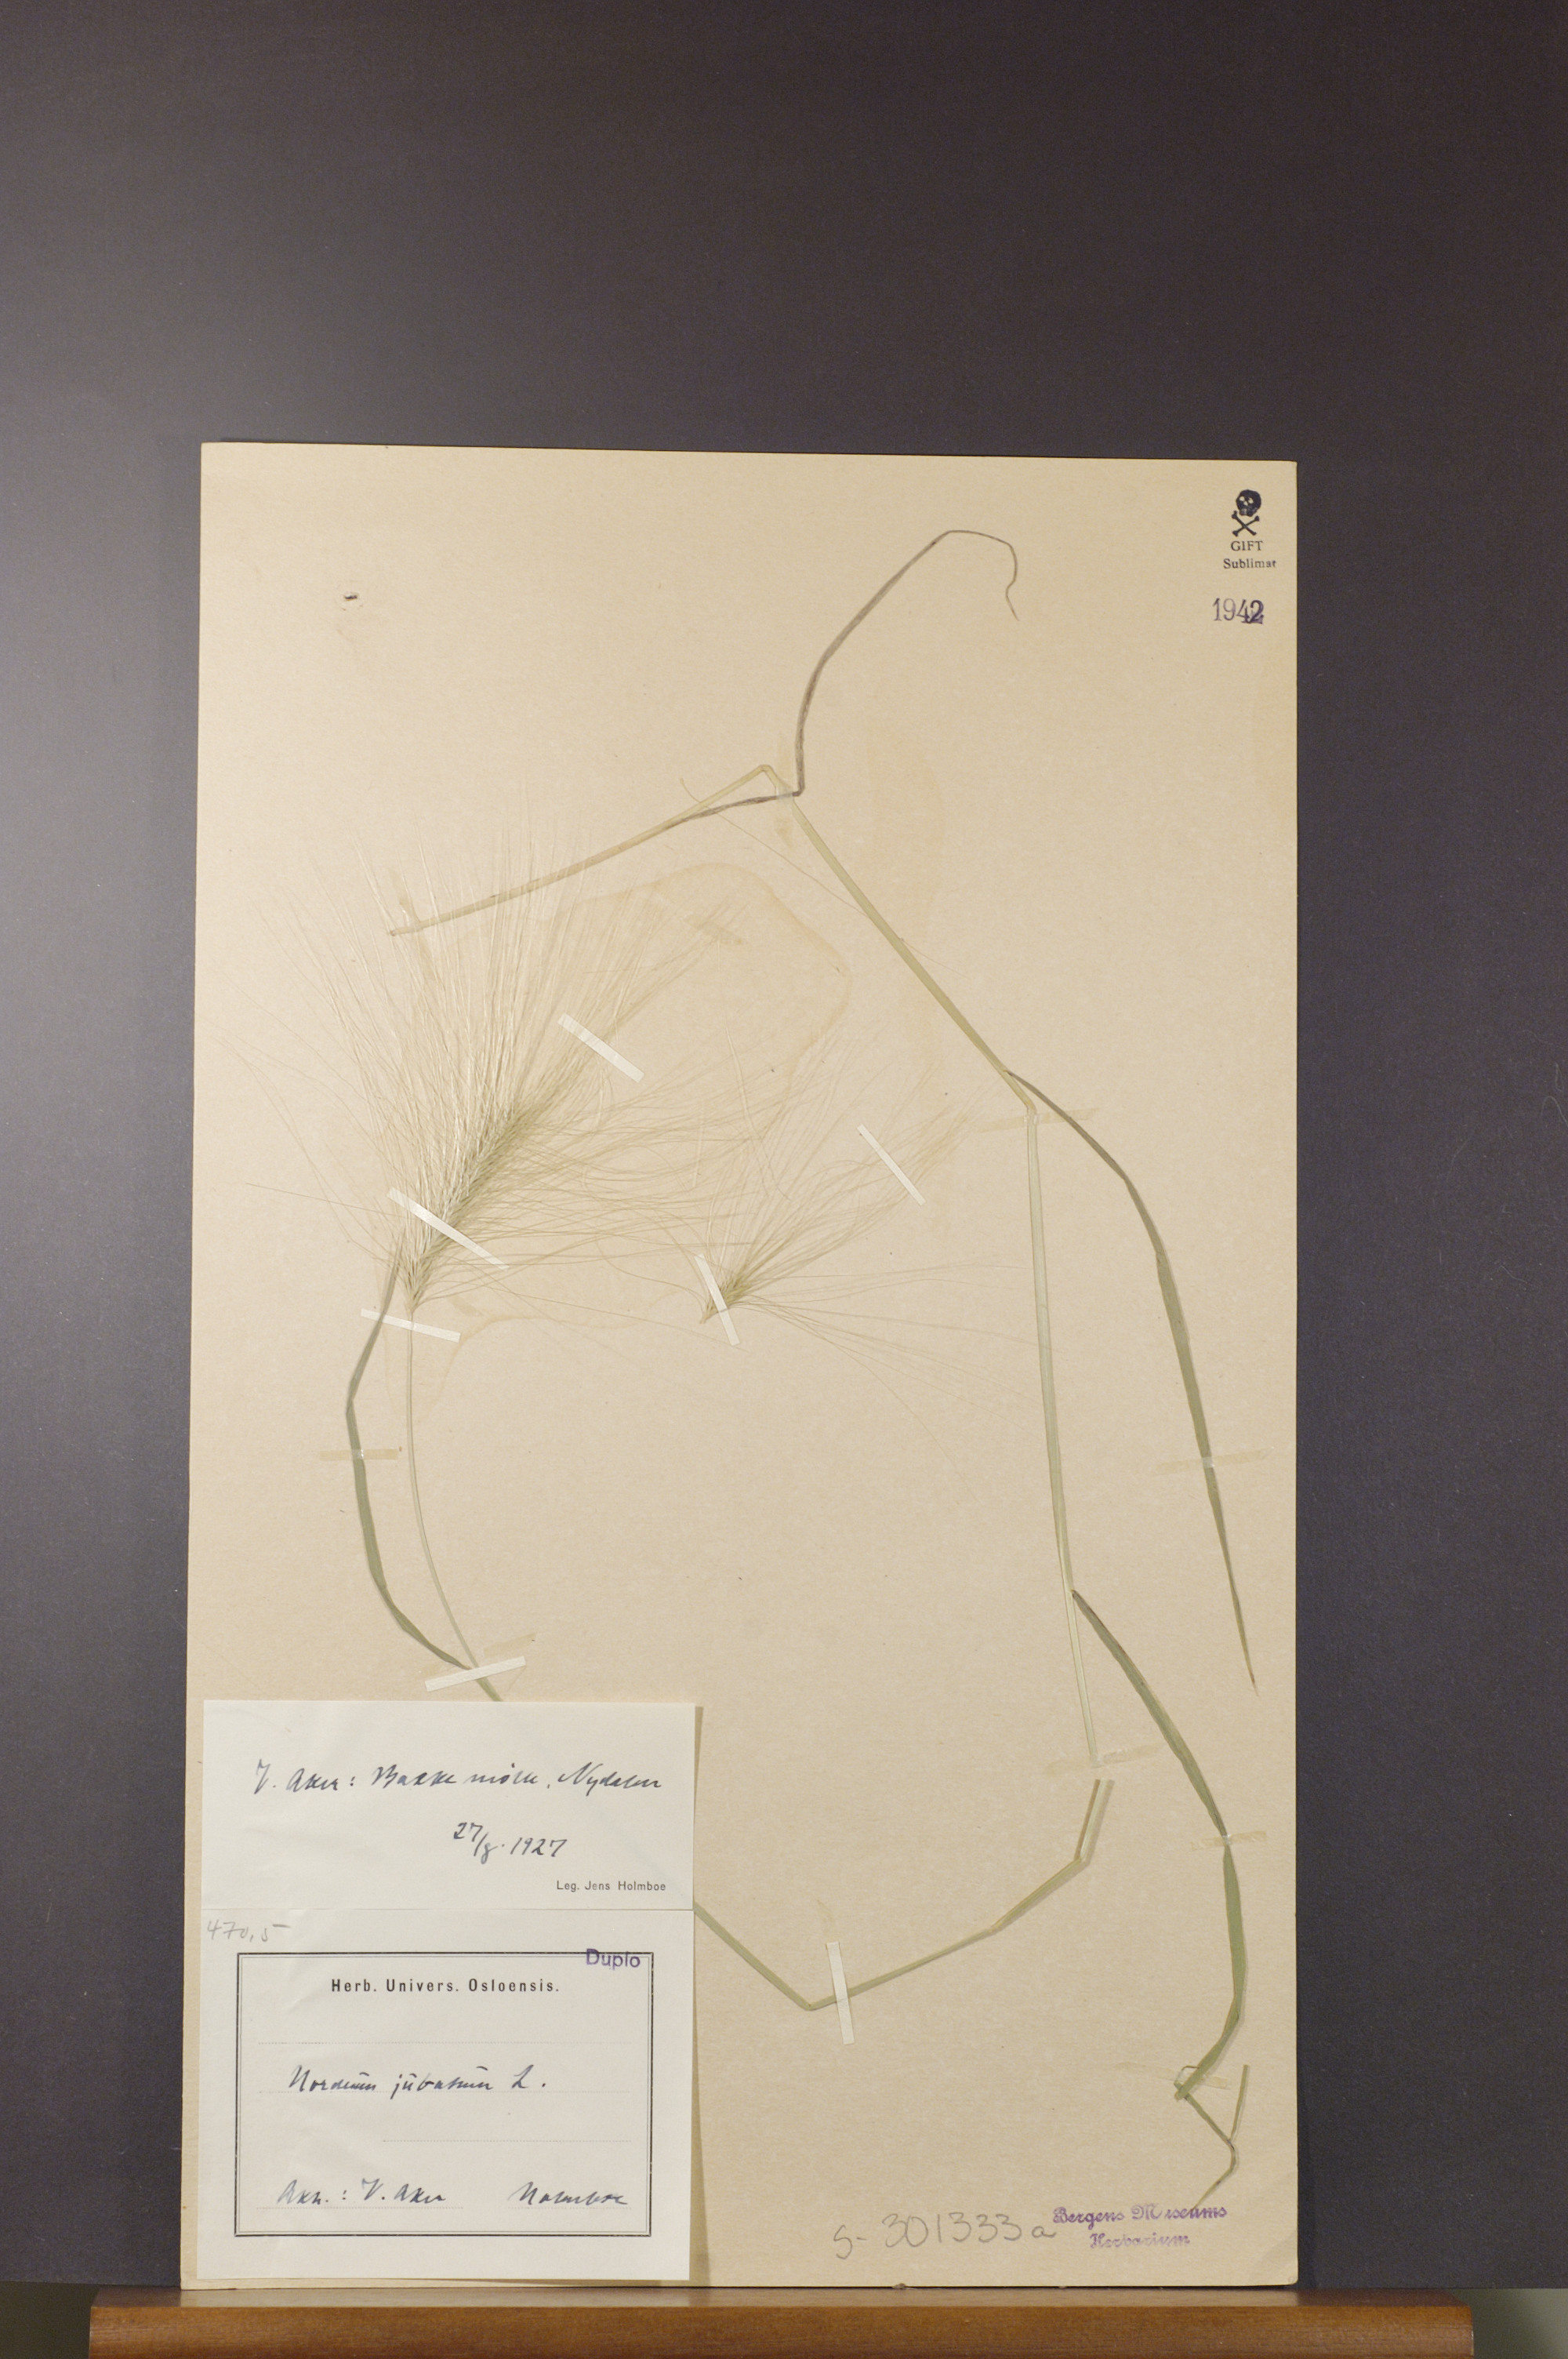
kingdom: Plantae
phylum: Tracheophyta
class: Liliopsida
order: Poales
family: Poaceae
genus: Hordeum
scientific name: Hordeum jubatum
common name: Foxtail barley
